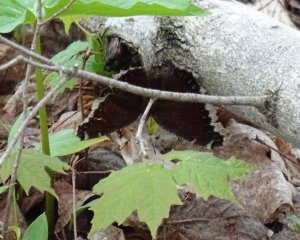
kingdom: Animalia
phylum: Arthropoda
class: Insecta
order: Lepidoptera
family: Nymphalidae
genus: Nymphalis
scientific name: Nymphalis antiopa
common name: Mourning Cloak
